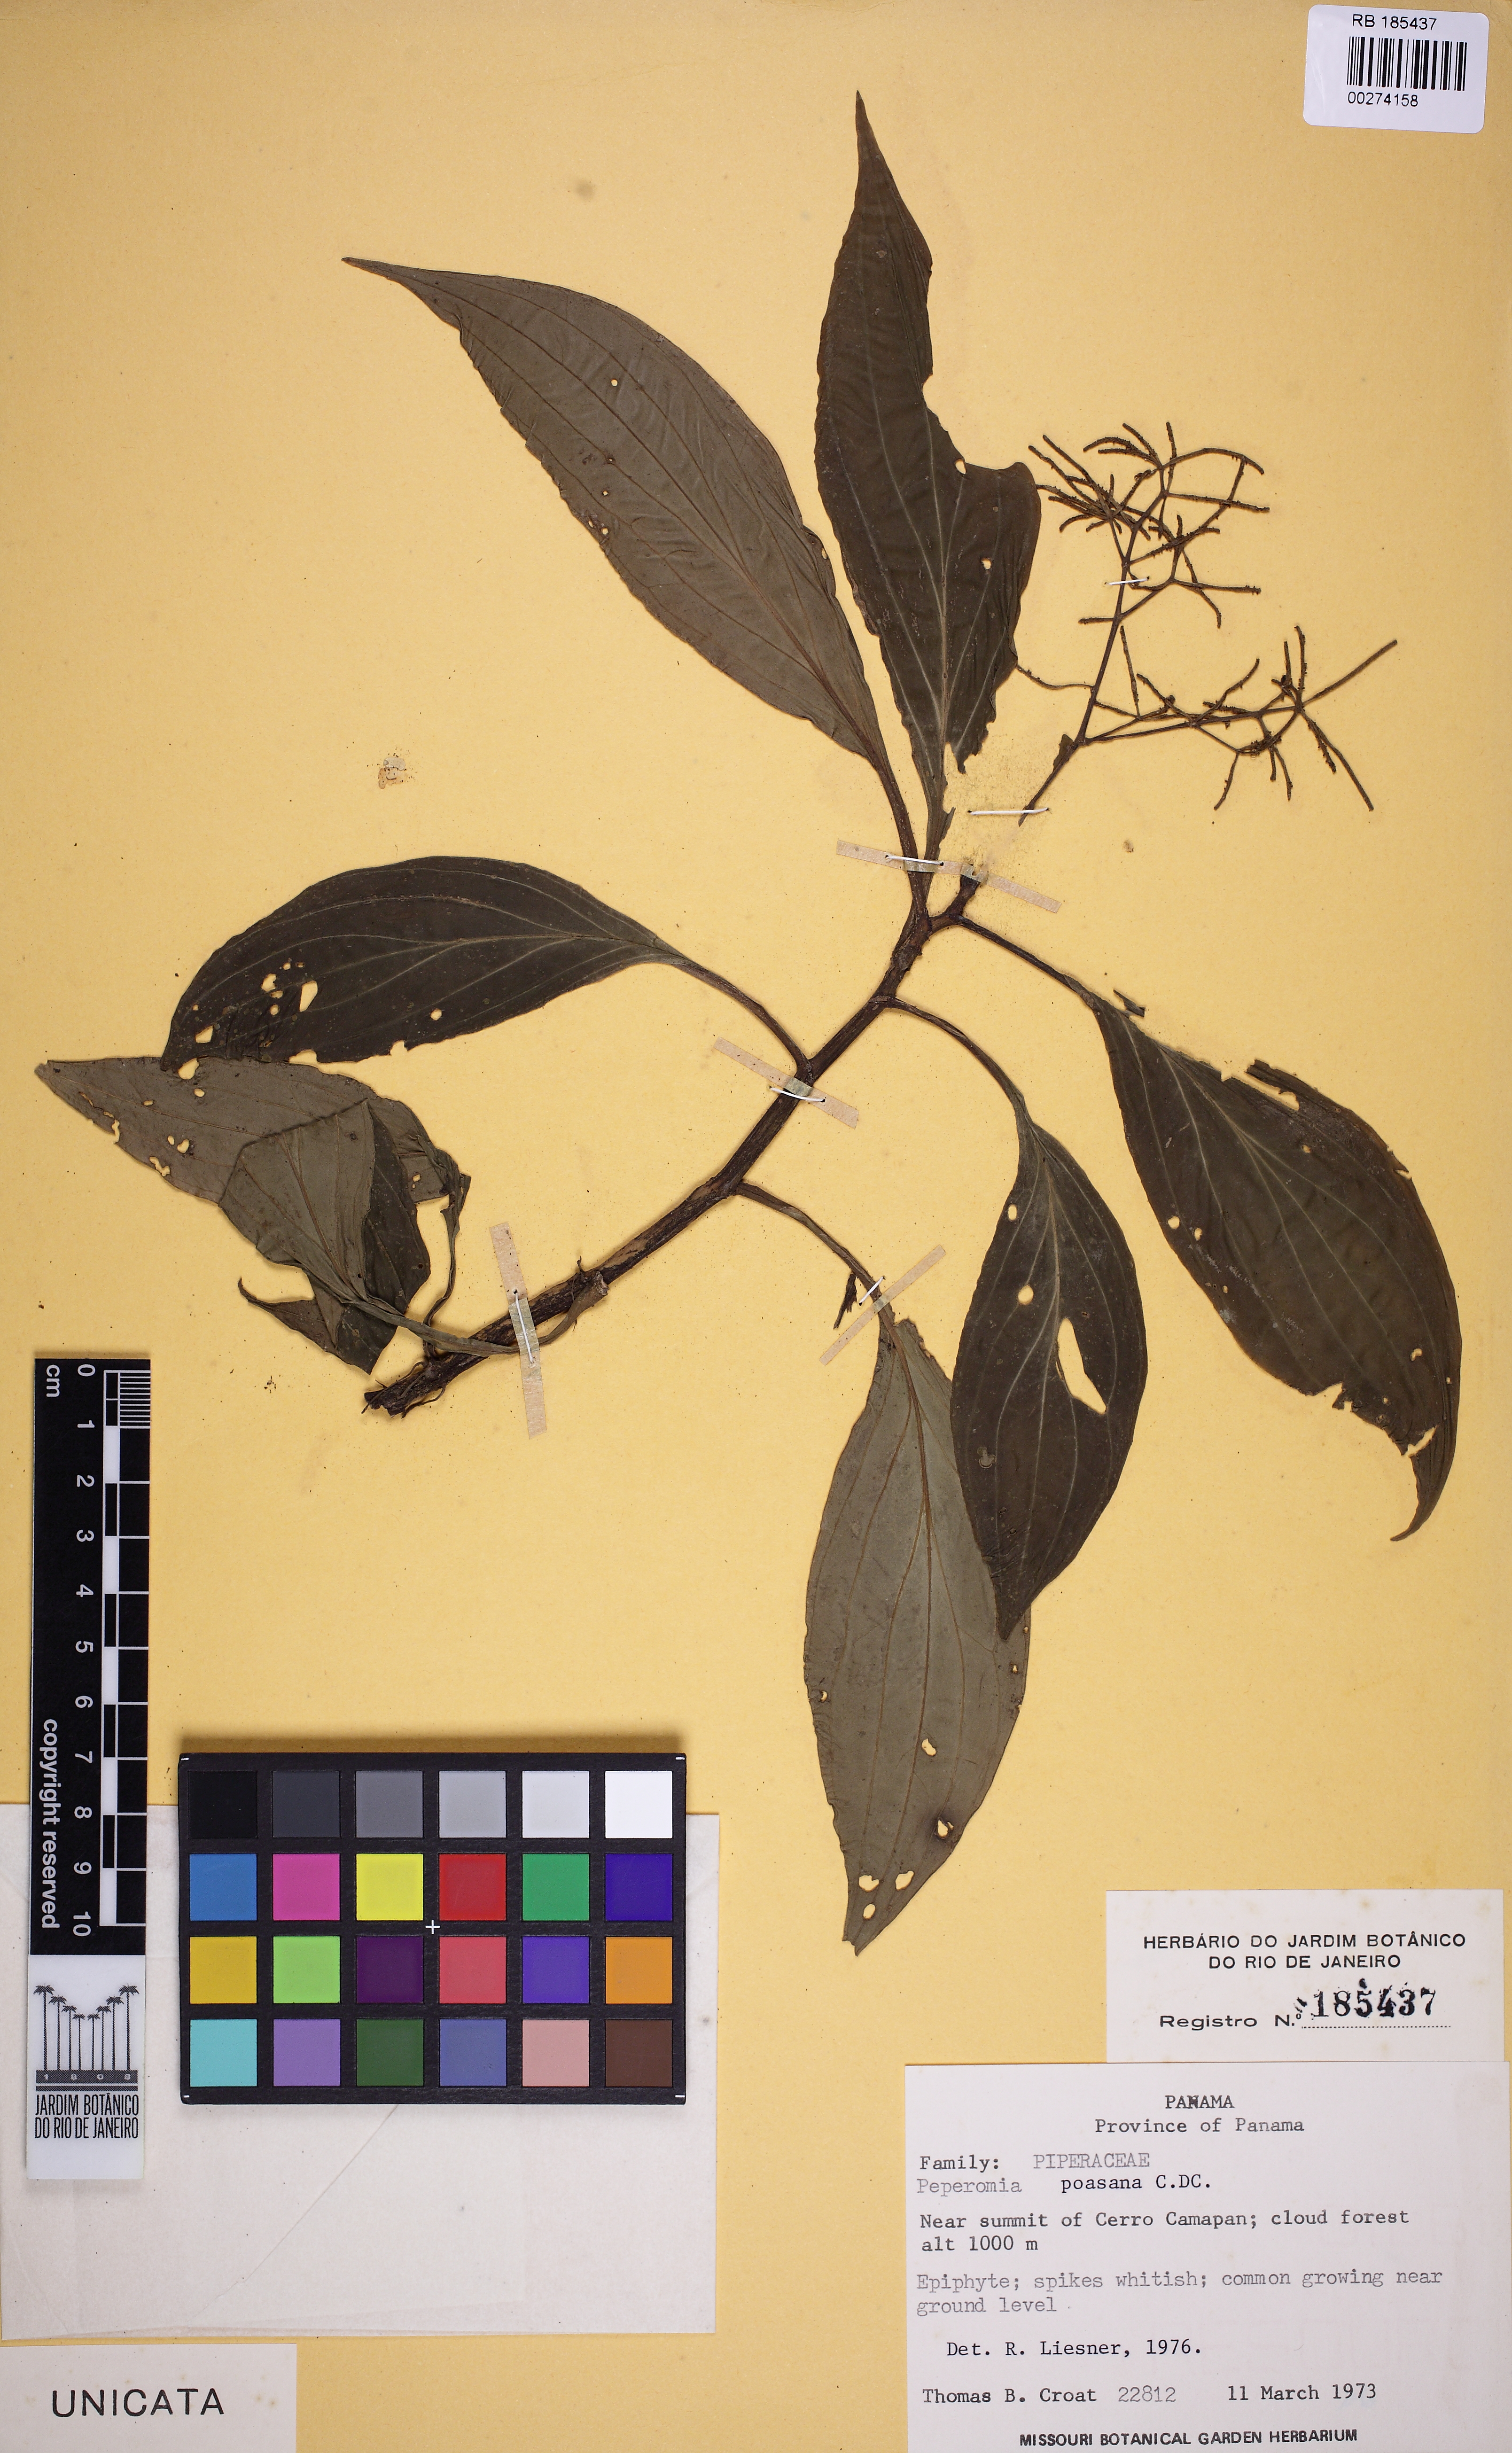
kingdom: Plantae
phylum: Tracheophyta
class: Magnoliopsida
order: Piperales
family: Piperaceae
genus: Peperomia
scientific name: Peperomia poasana
